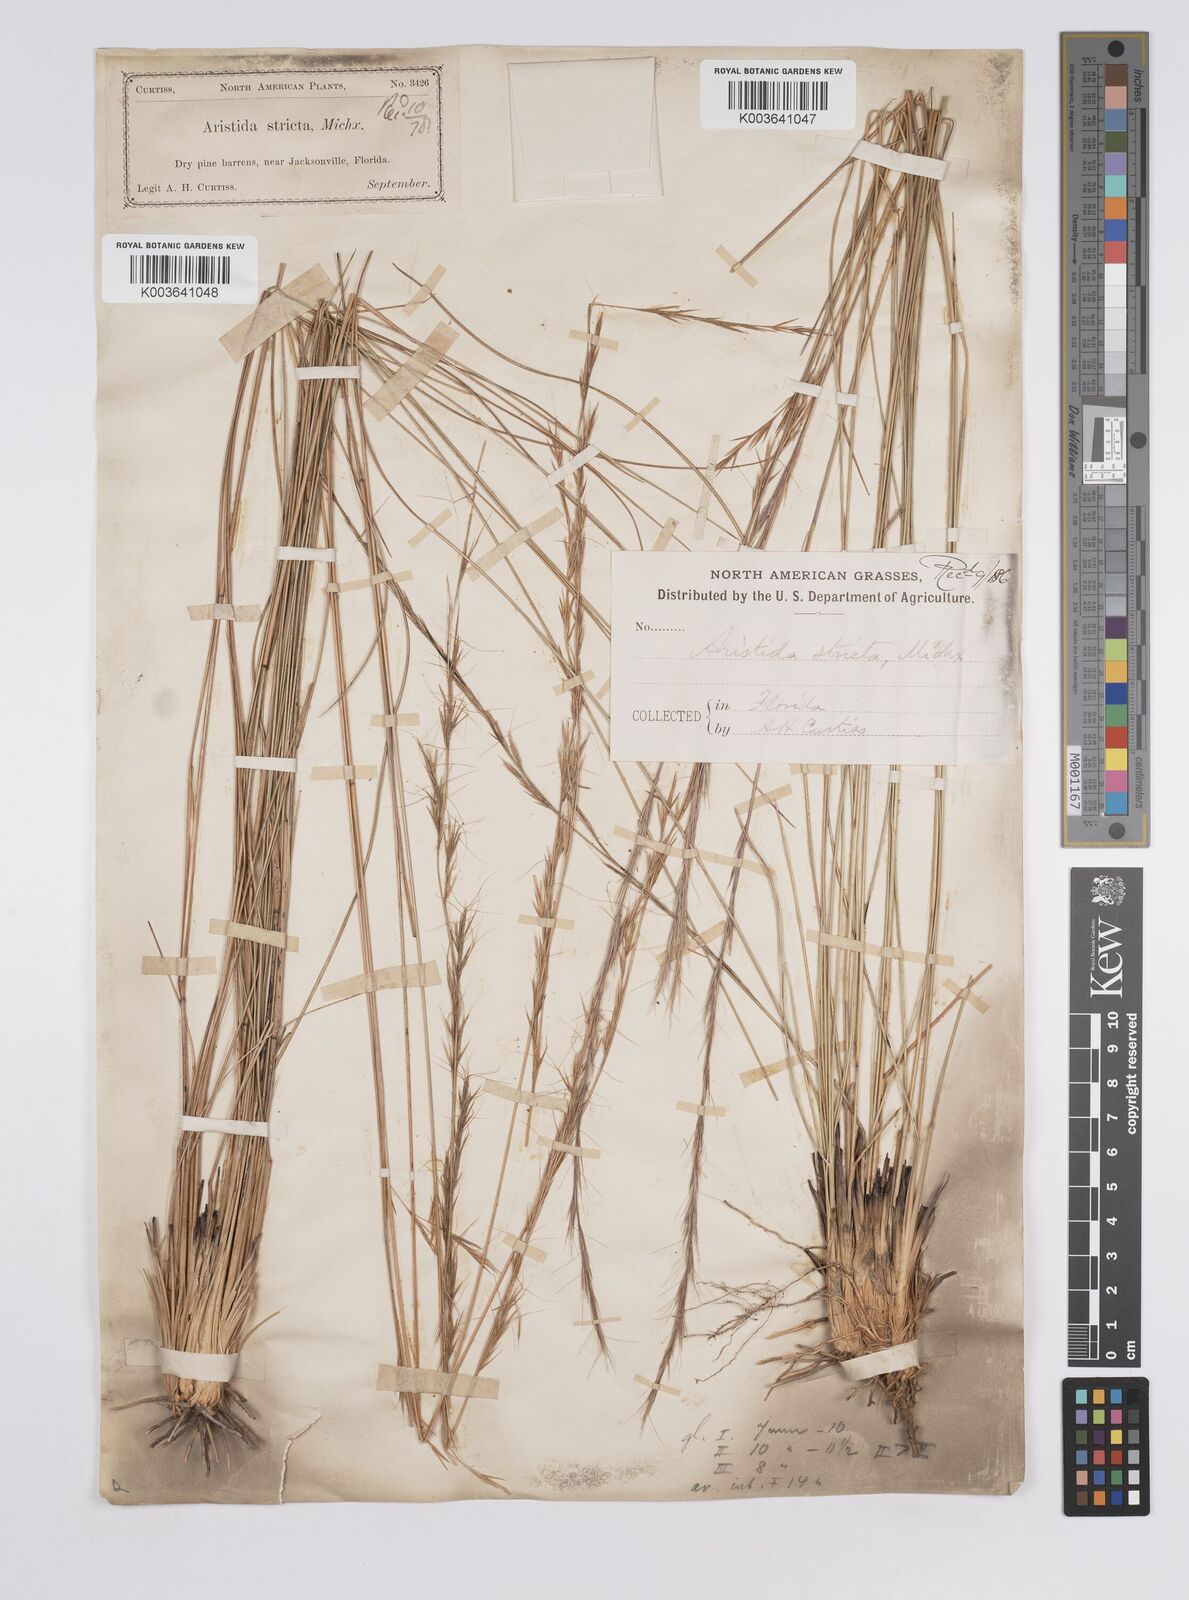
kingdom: Plantae
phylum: Tracheophyta
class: Liliopsida
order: Poales
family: Poaceae
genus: Aristida
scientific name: Aristida stricta
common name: Pineland three-awn
